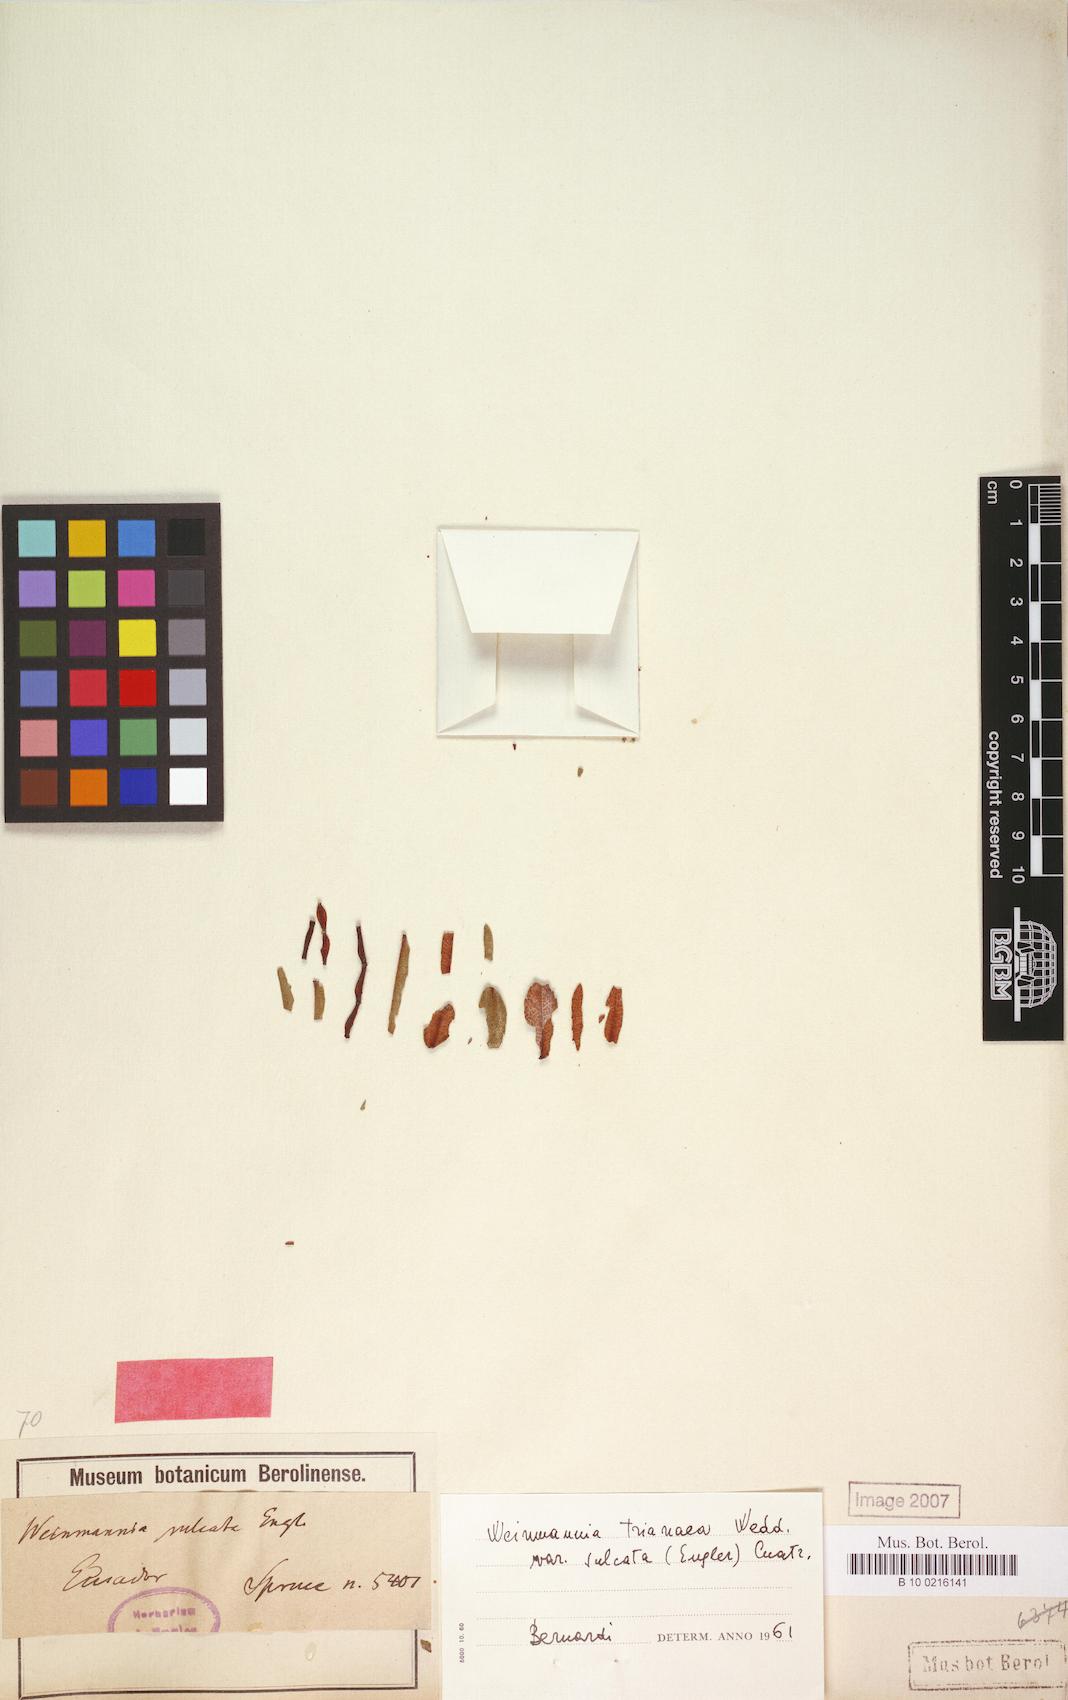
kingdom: Plantae
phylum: Tracheophyta
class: Magnoliopsida
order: Oxalidales
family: Cunoniaceae
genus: Weinmannia
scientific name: Weinmannia trianae
